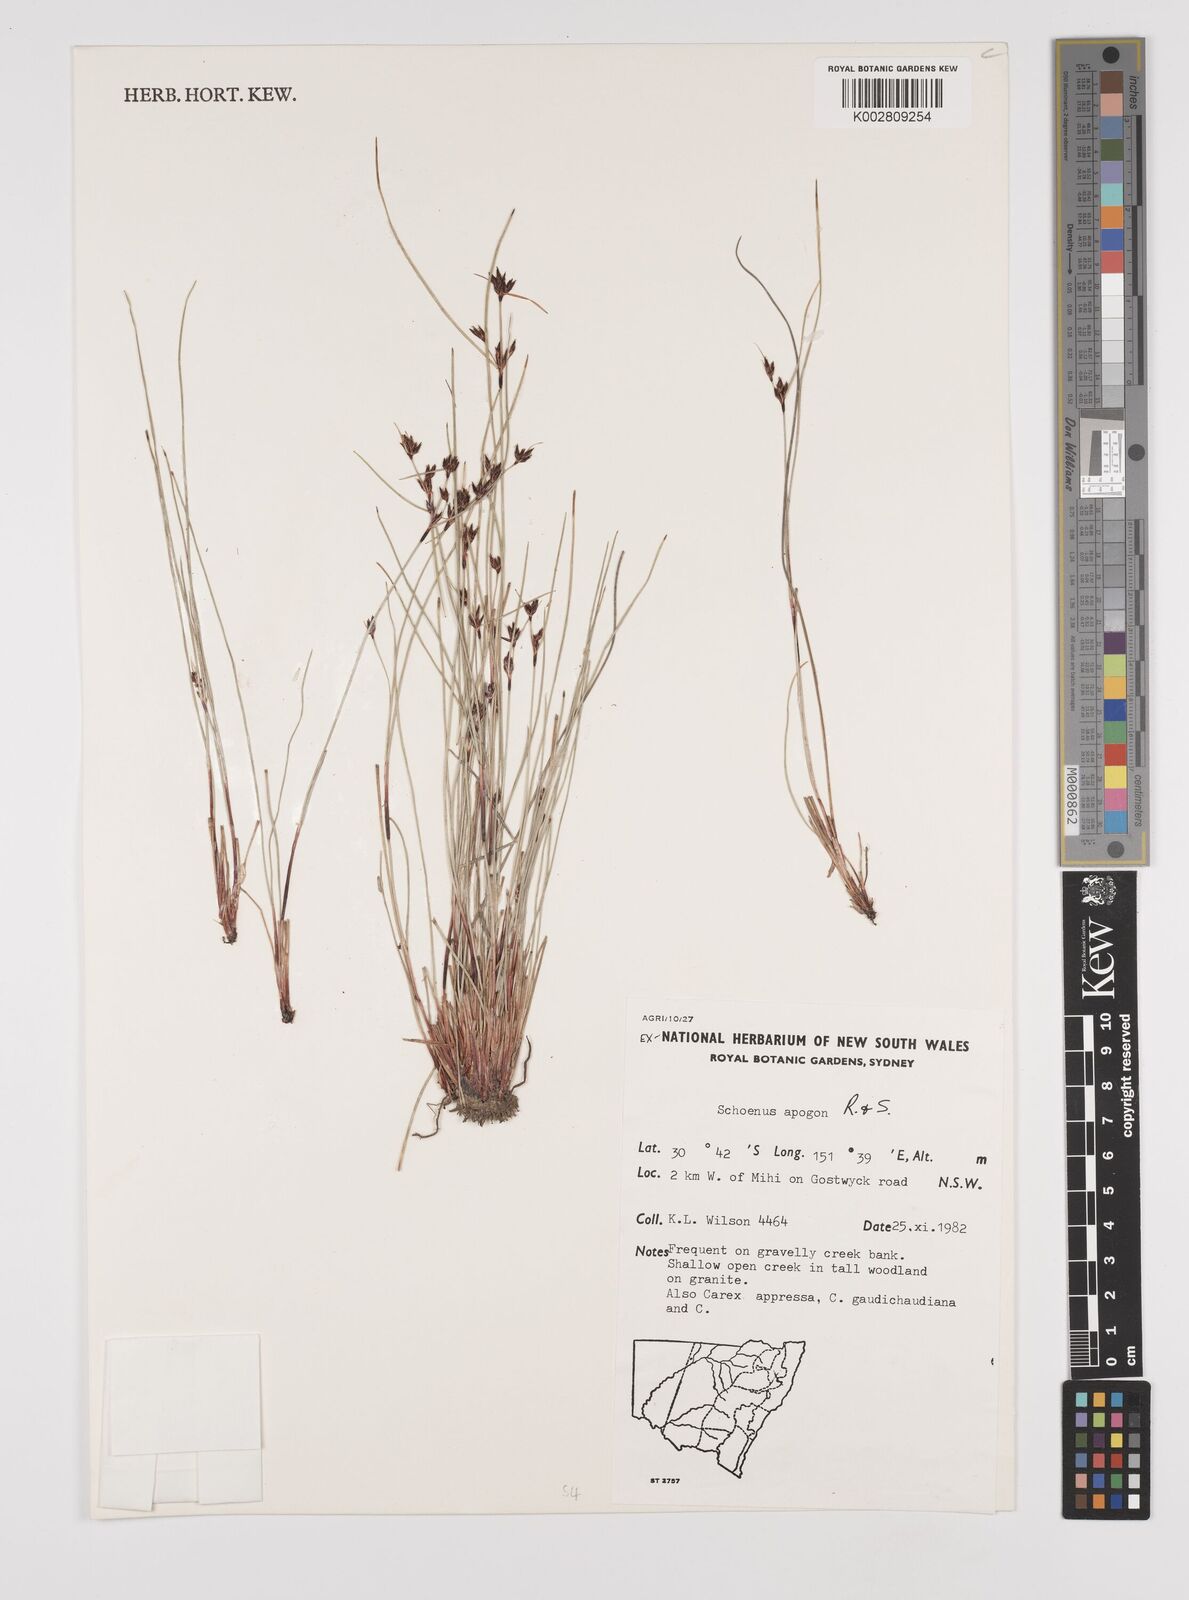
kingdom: Plantae
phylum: Tracheophyta
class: Liliopsida
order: Poales
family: Cyperaceae
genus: Schoenus
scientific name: Schoenus apogon
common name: Smooth bogrush
